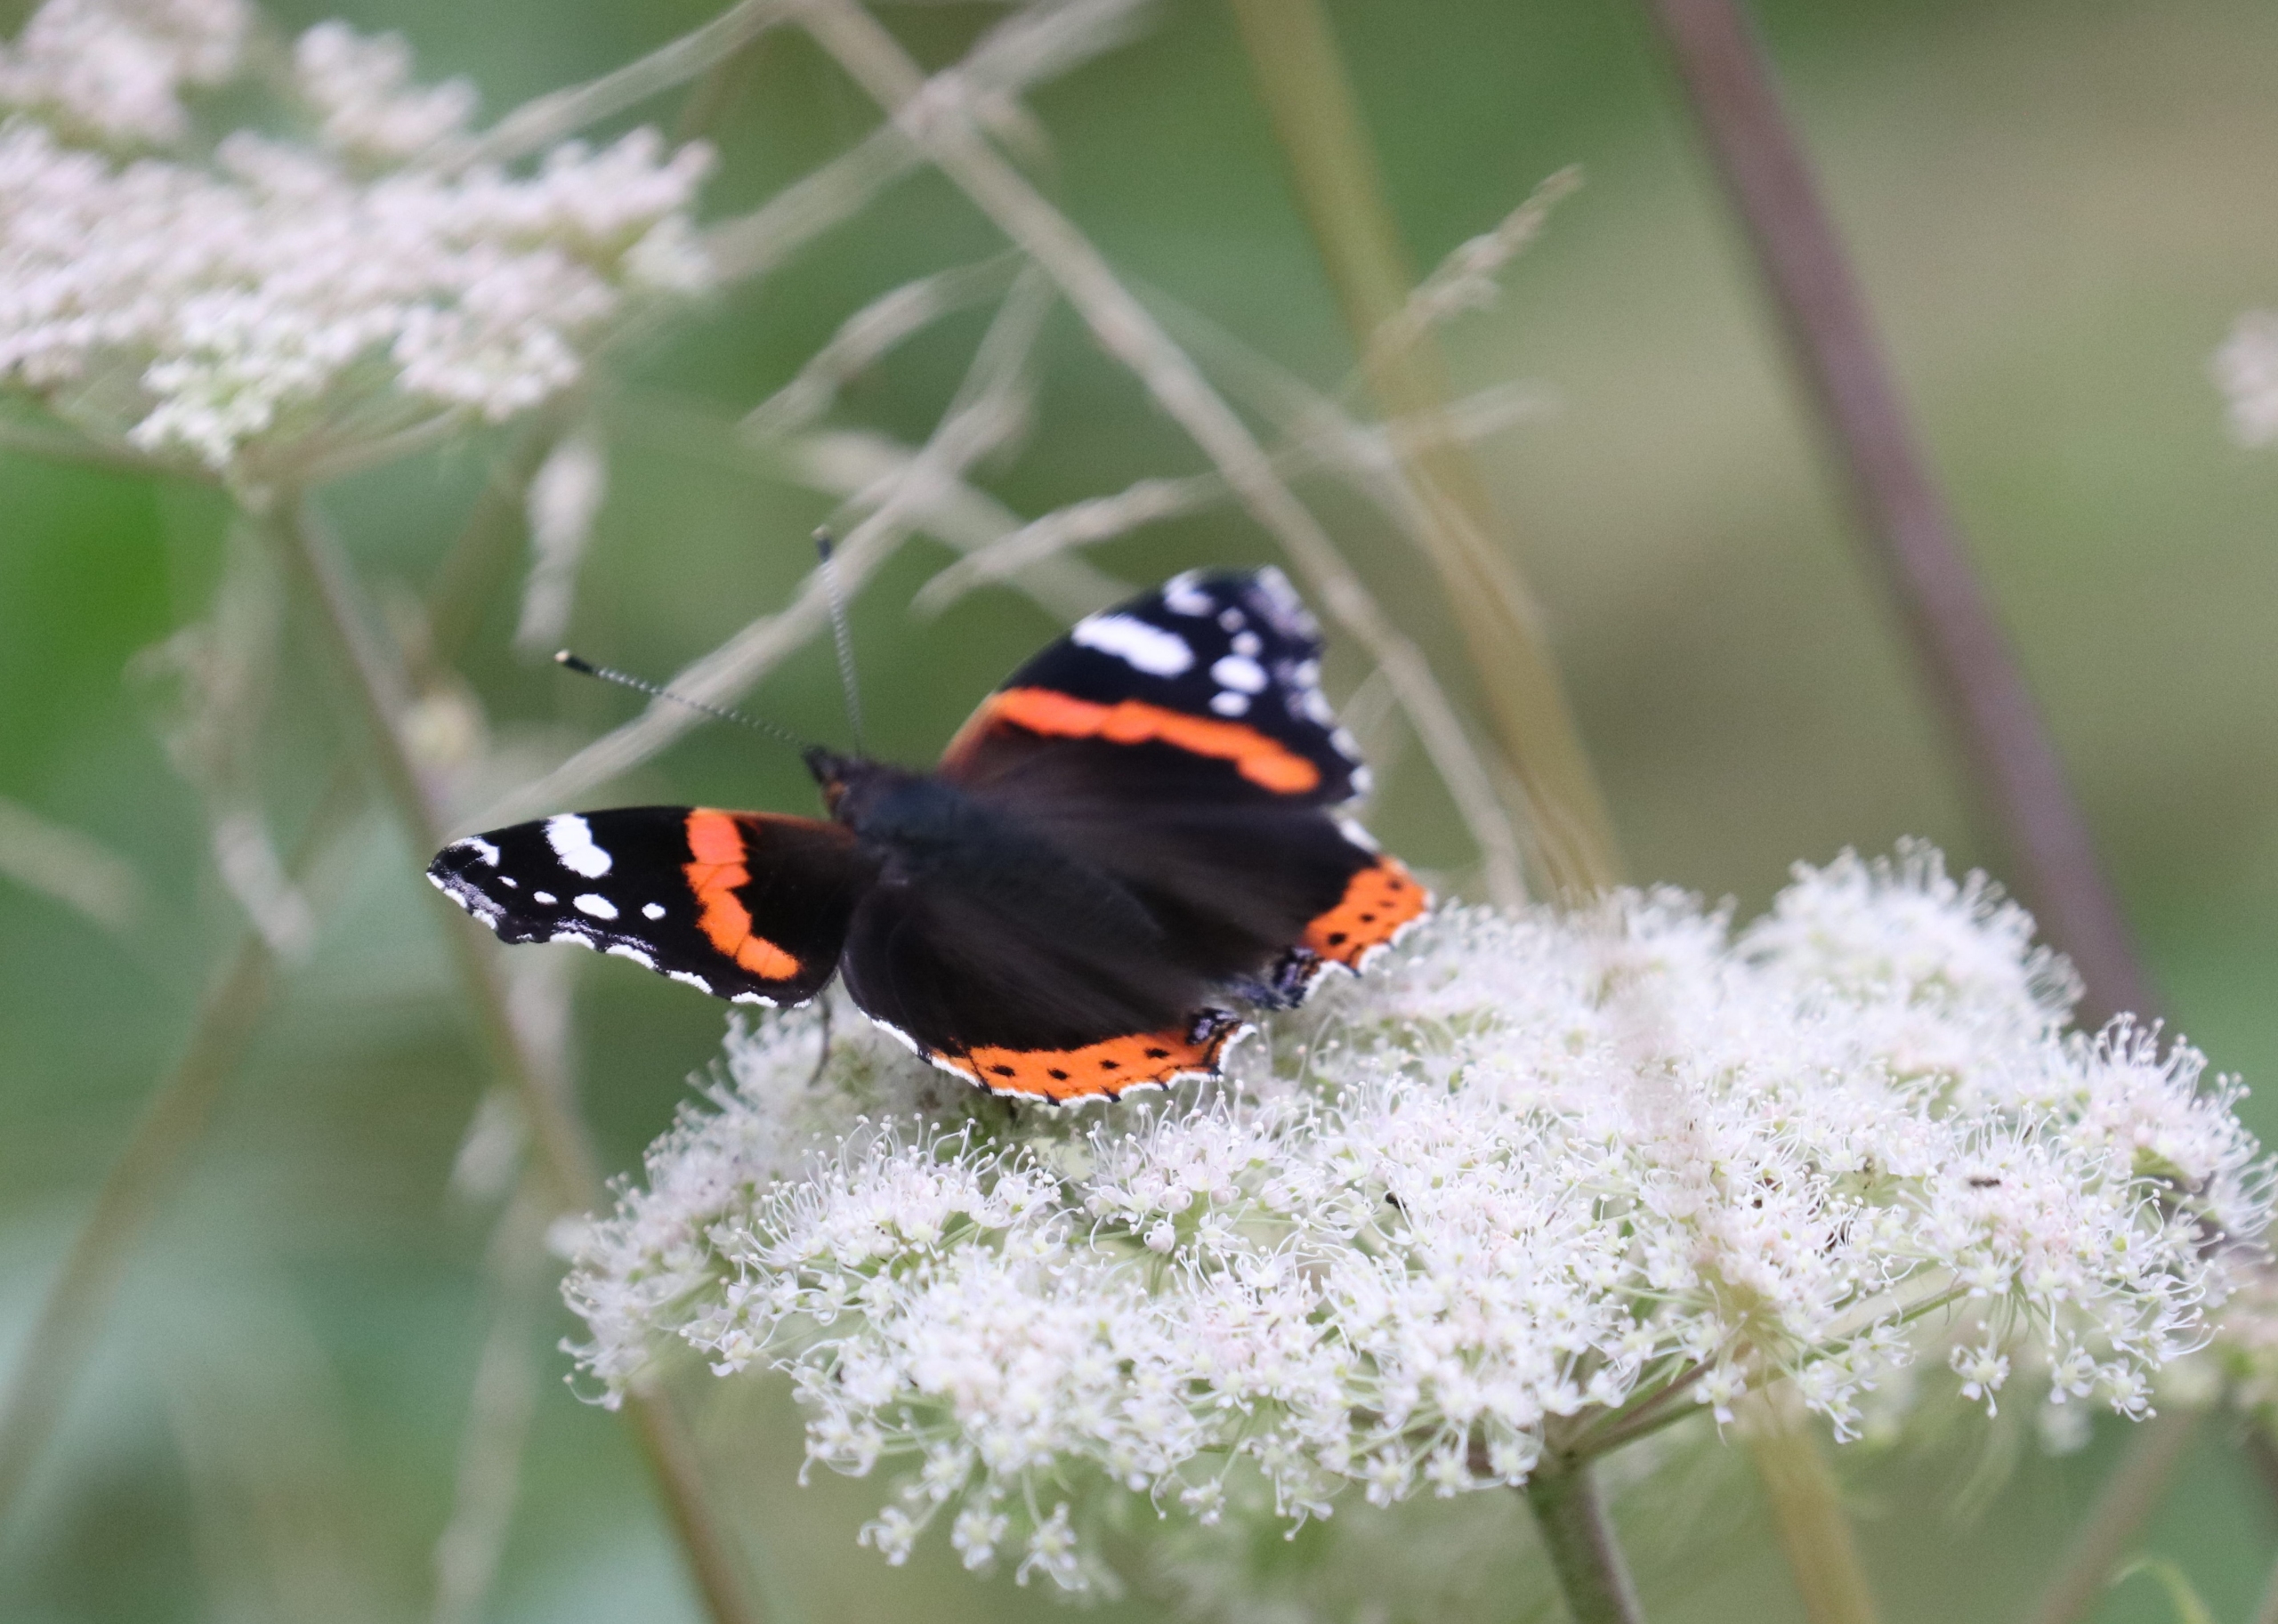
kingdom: Animalia
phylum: Arthropoda
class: Insecta
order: Lepidoptera
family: Nymphalidae
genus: Vanessa
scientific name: Vanessa atalanta
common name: Admiral
